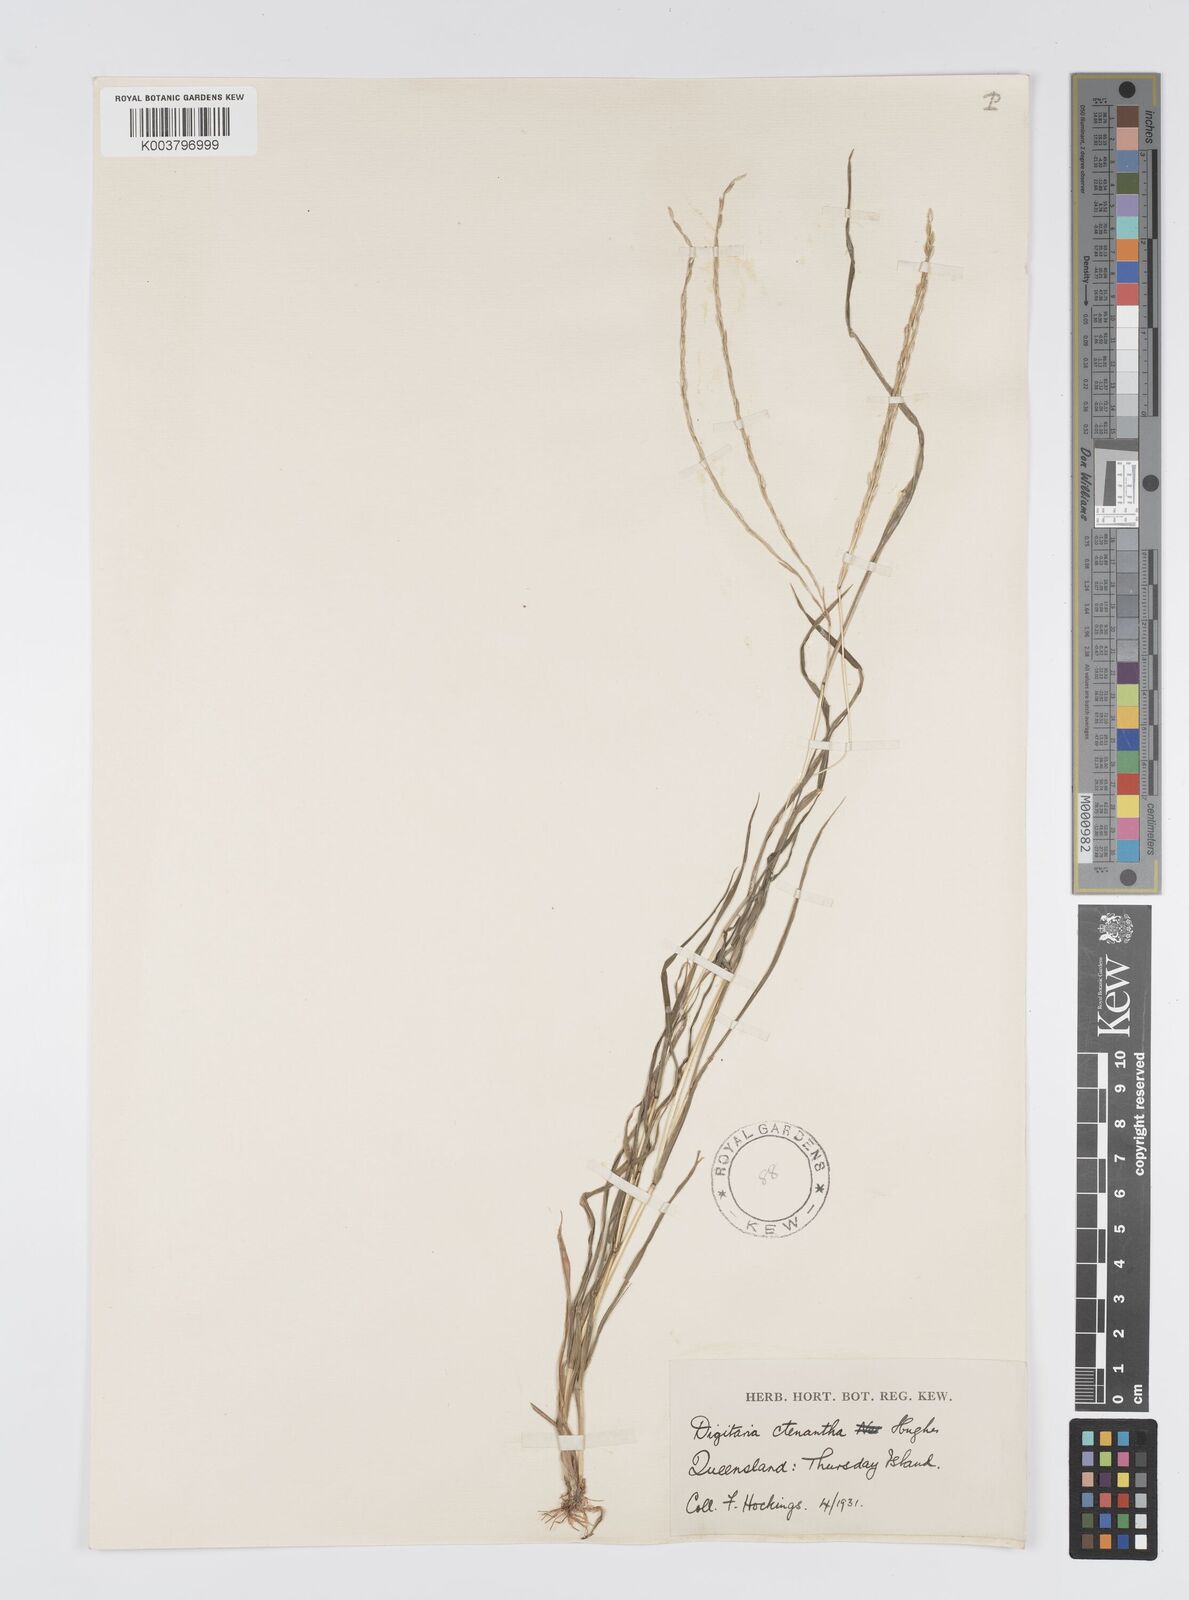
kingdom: Plantae
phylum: Tracheophyta
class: Liliopsida
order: Poales
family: Poaceae
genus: Digitaria
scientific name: Digitaria ctenantha
